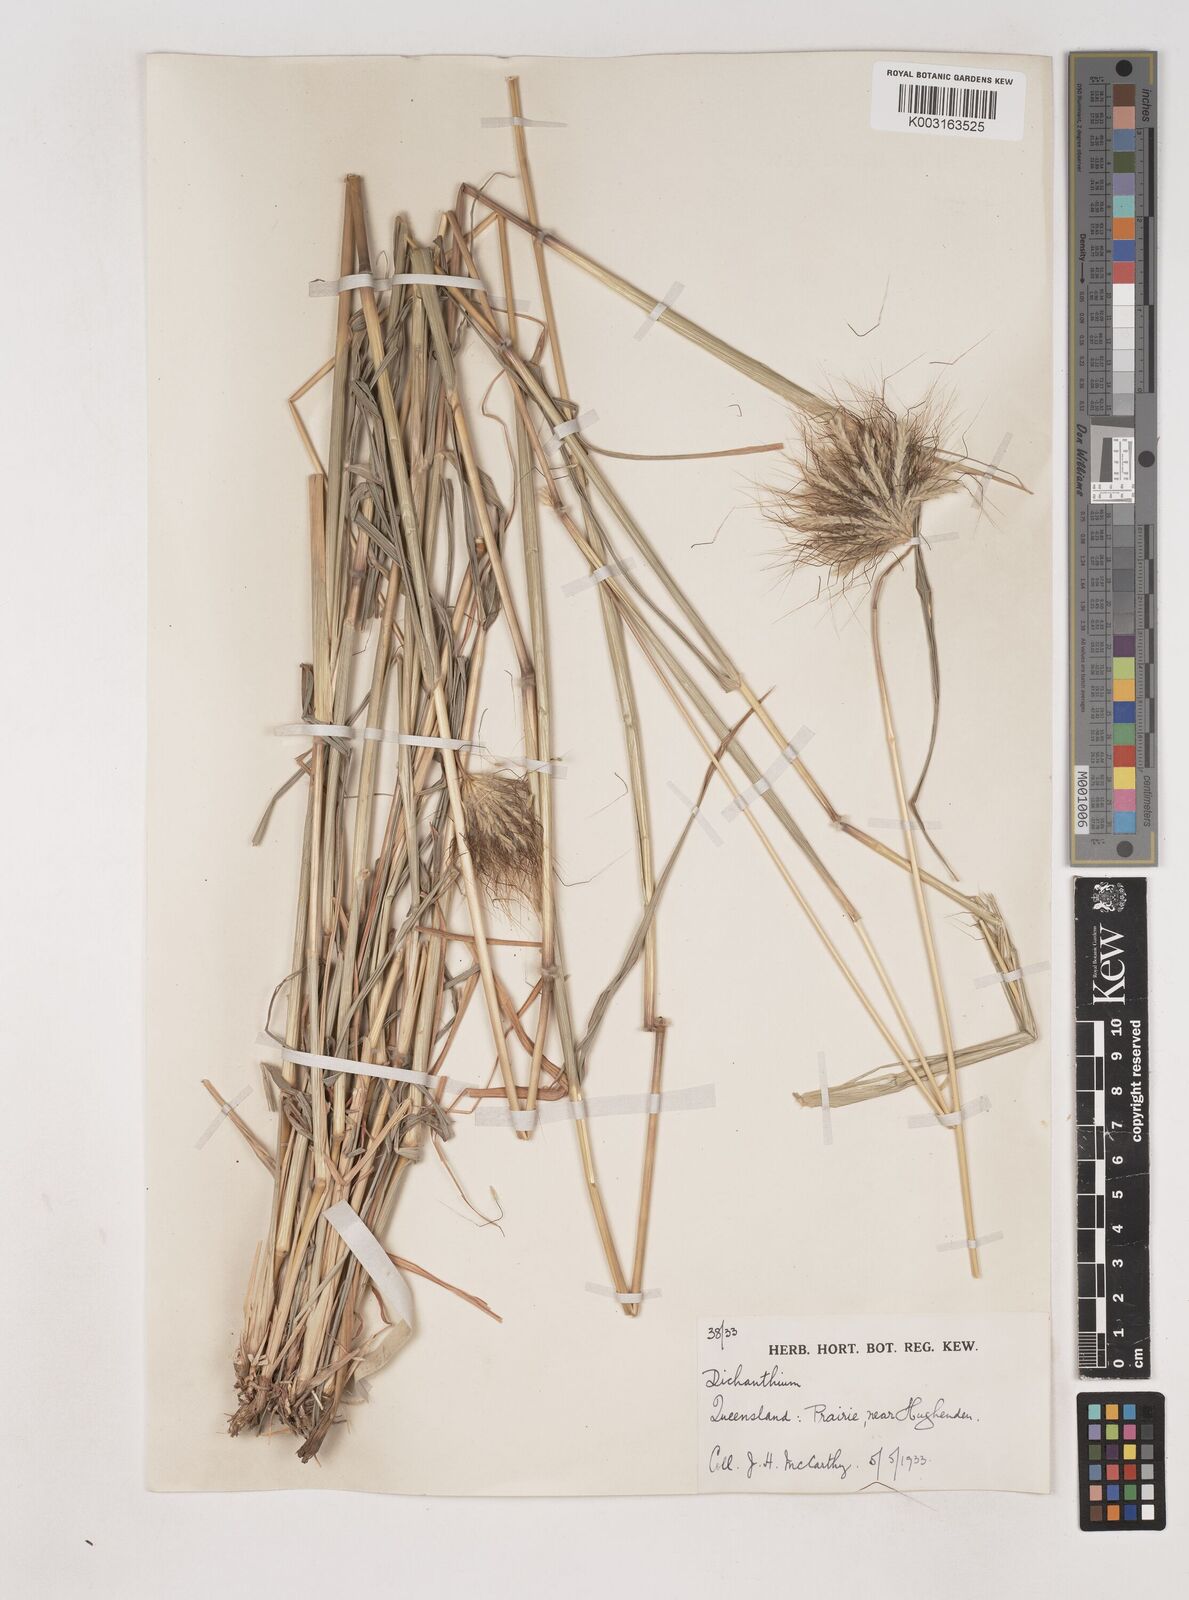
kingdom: Plantae
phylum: Tracheophyta
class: Liliopsida
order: Poales
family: Poaceae
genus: Dichanthium
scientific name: Dichanthium sericeum
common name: Silky bluestem
